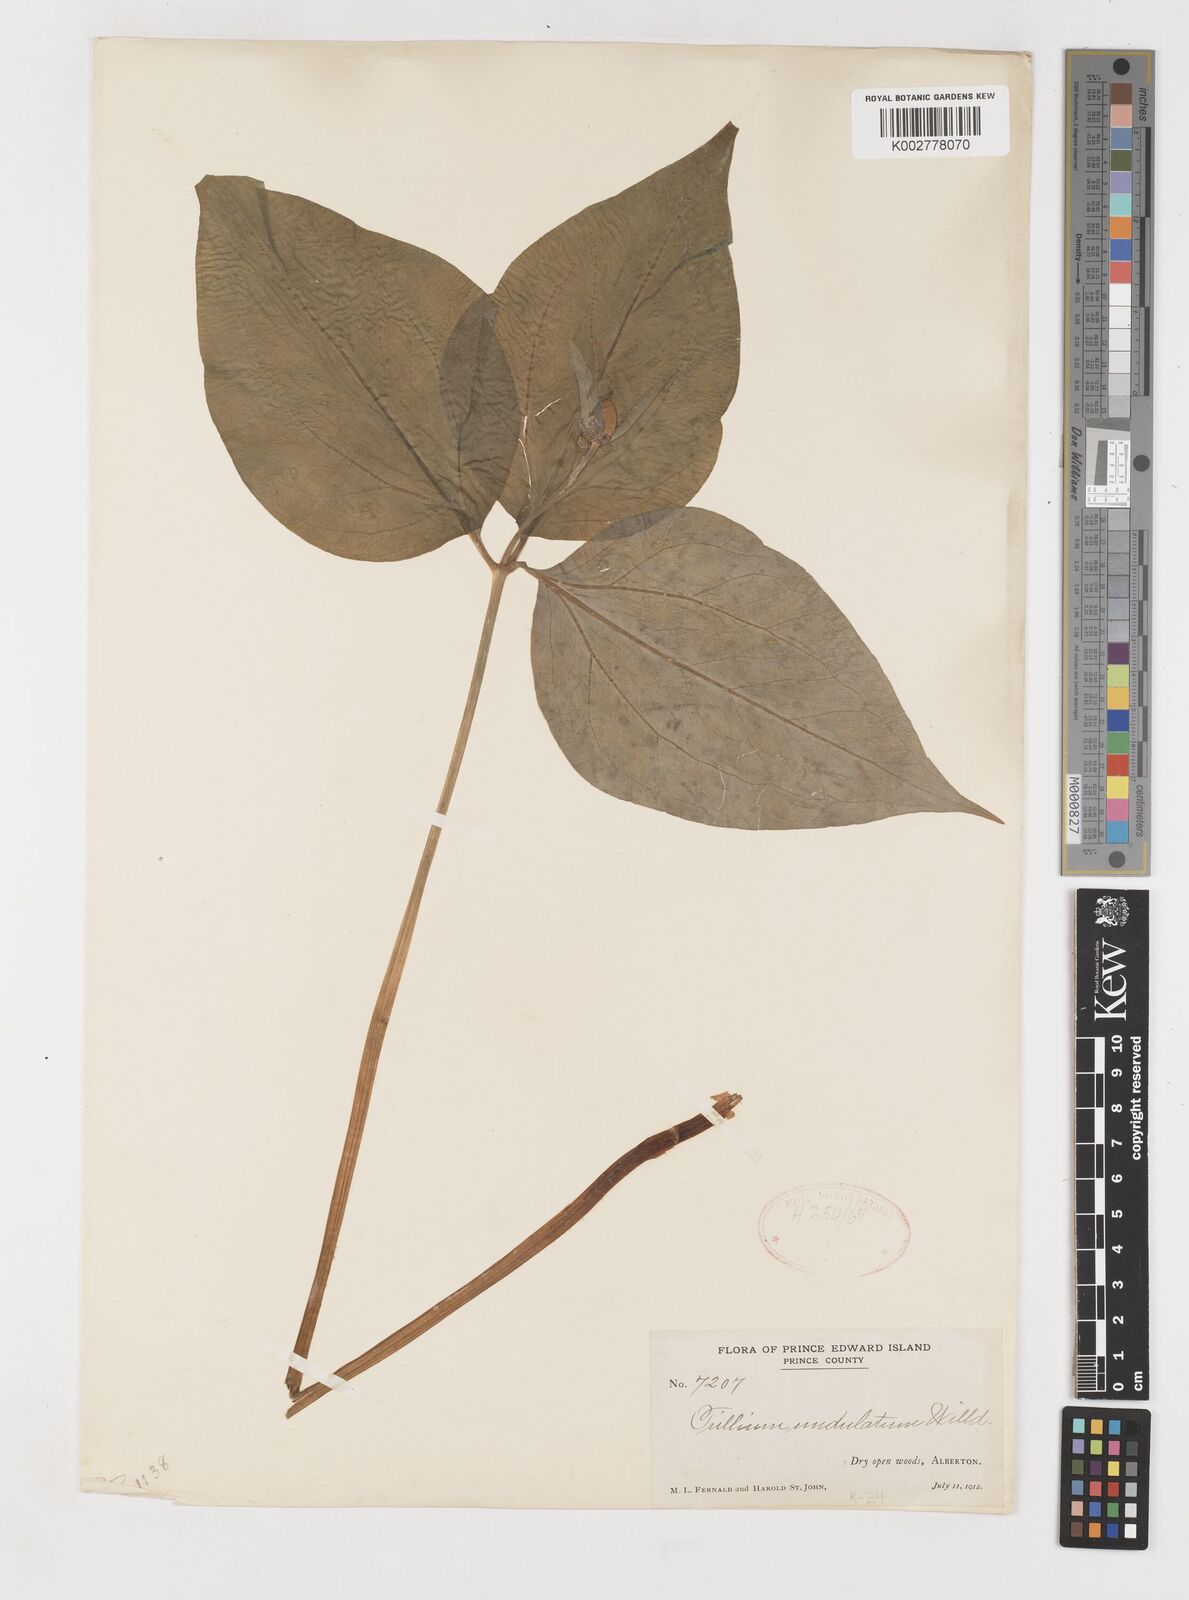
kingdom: Plantae
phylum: Tracheophyta
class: Liliopsida
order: Liliales
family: Melanthiaceae
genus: Trillium
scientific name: Trillium undulatum
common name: Paint trillium
